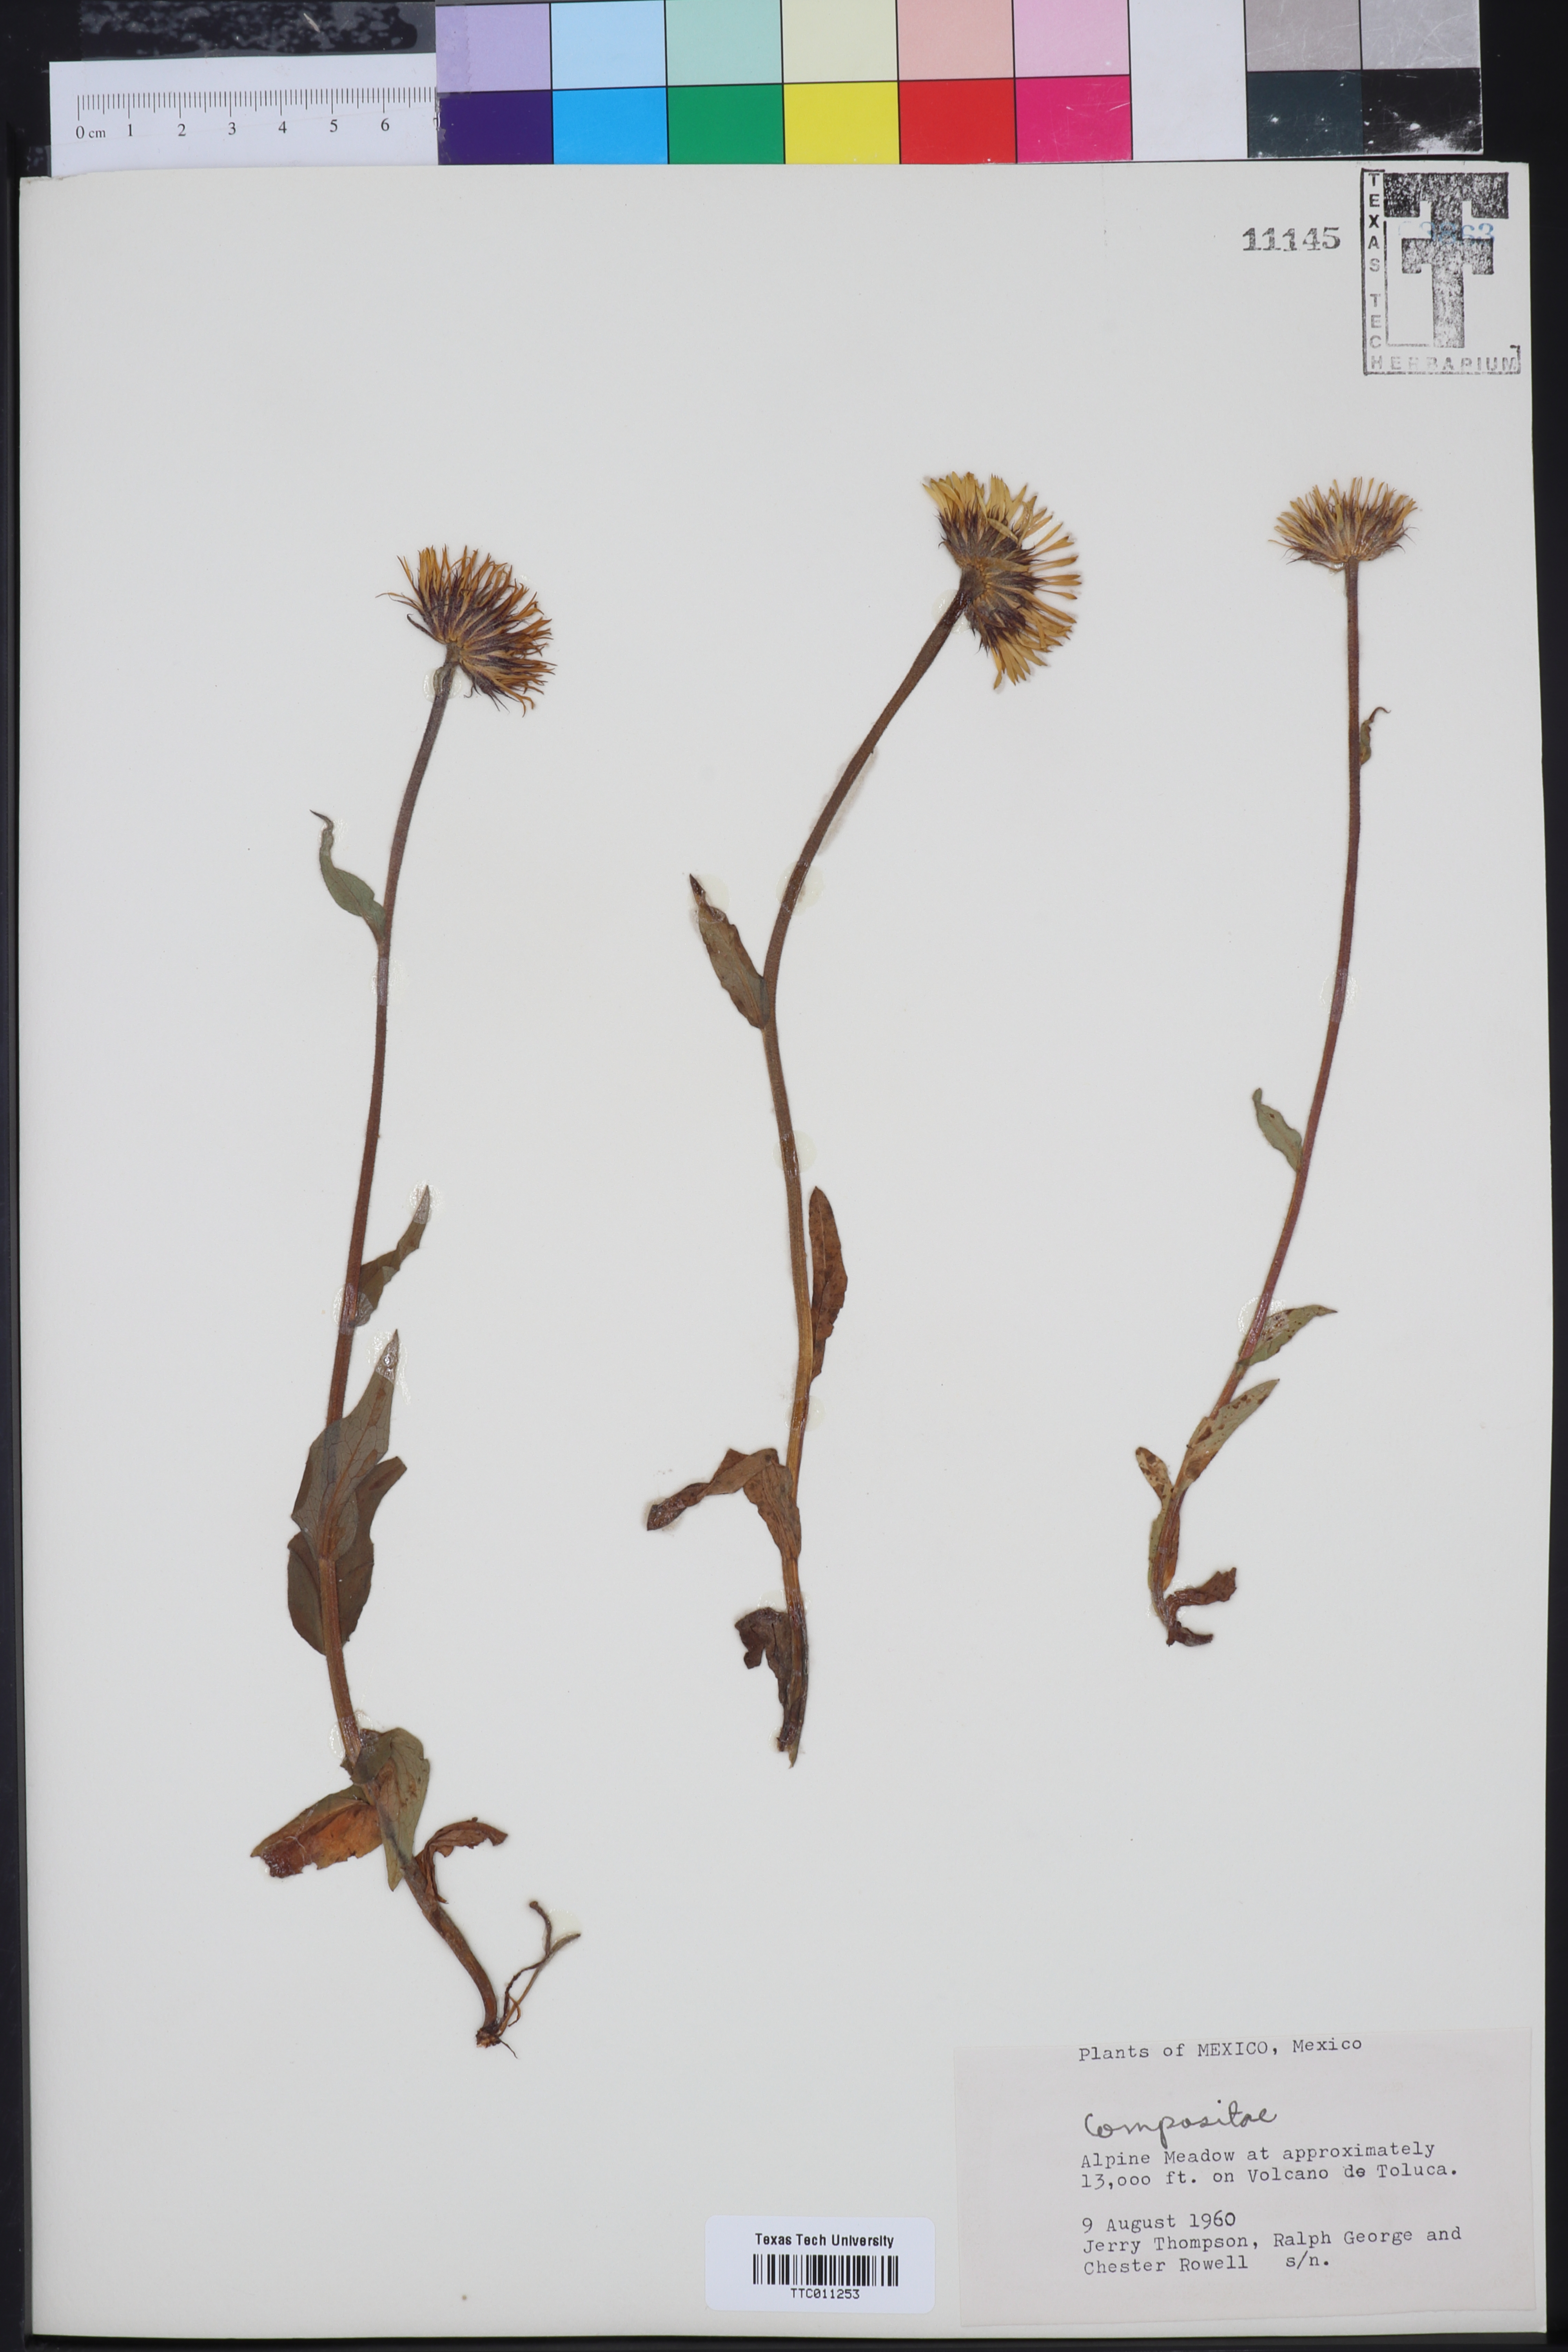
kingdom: Plantae
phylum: Tracheophyta
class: Magnoliopsida
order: Asterales
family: Asteraceae
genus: Zinnia
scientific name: Zinnia
